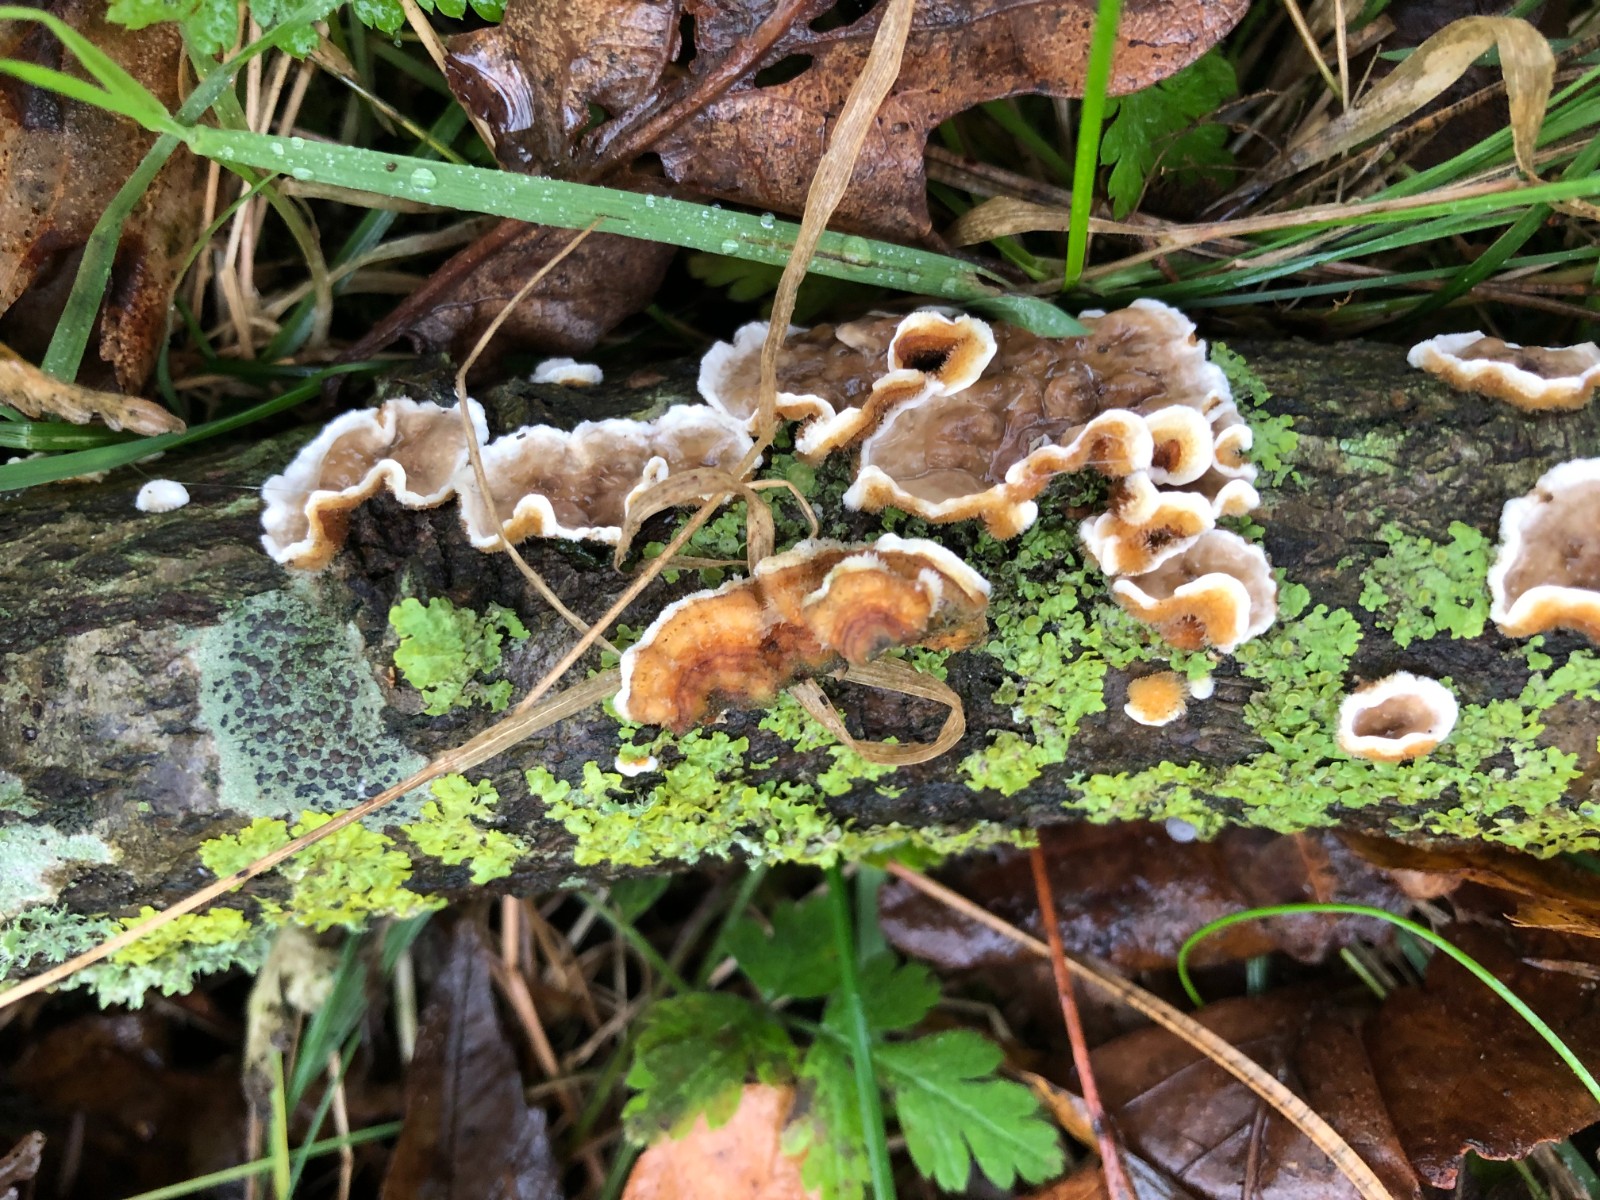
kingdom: Fungi
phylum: Basidiomycota
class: Agaricomycetes
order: Russulales
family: Stereaceae
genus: Stereum
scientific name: Stereum hirsutum
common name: håret lædersvamp
